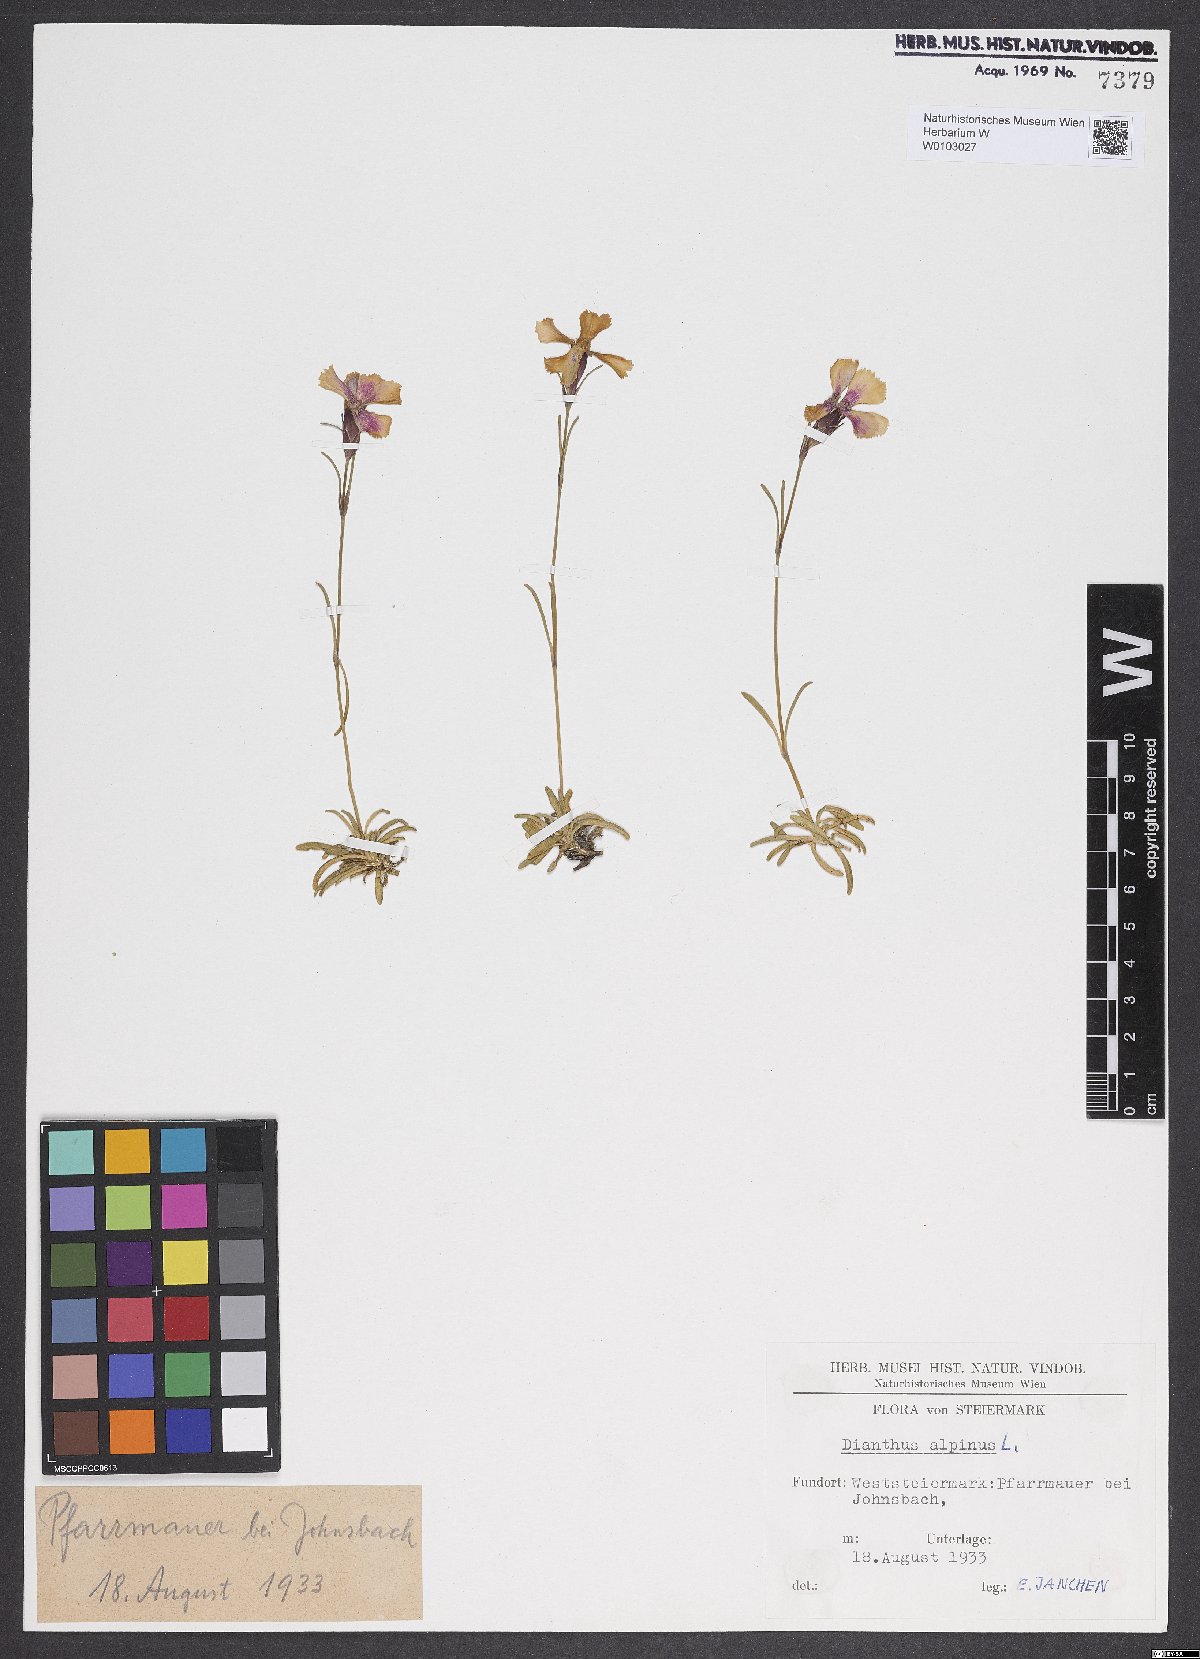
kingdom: Plantae
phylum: Tracheophyta
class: Magnoliopsida
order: Caryophyllales
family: Caryophyllaceae
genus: Dianthus
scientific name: Dianthus alpinus
